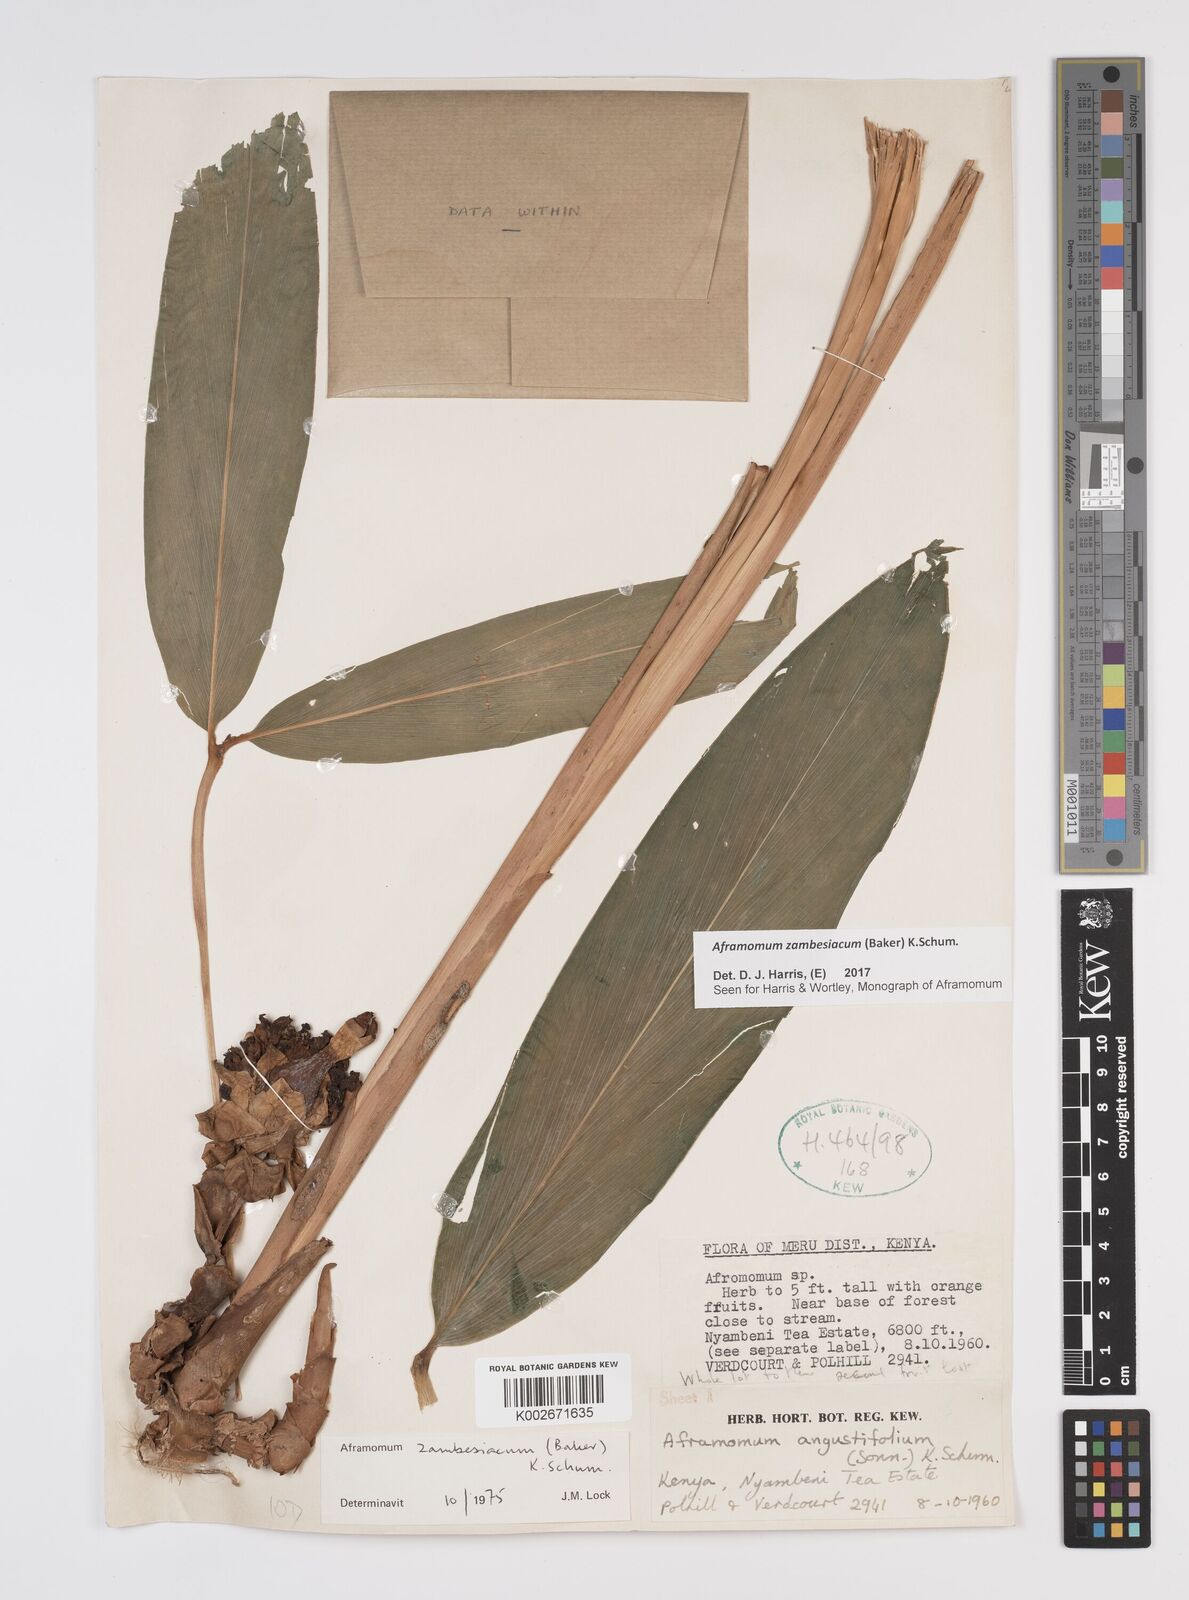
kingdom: Plantae
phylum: Tracheophyta
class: Liliopsida
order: Zingiberales
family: Zingiberaceae
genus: Aframomum
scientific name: Aframomum zambesiacum
